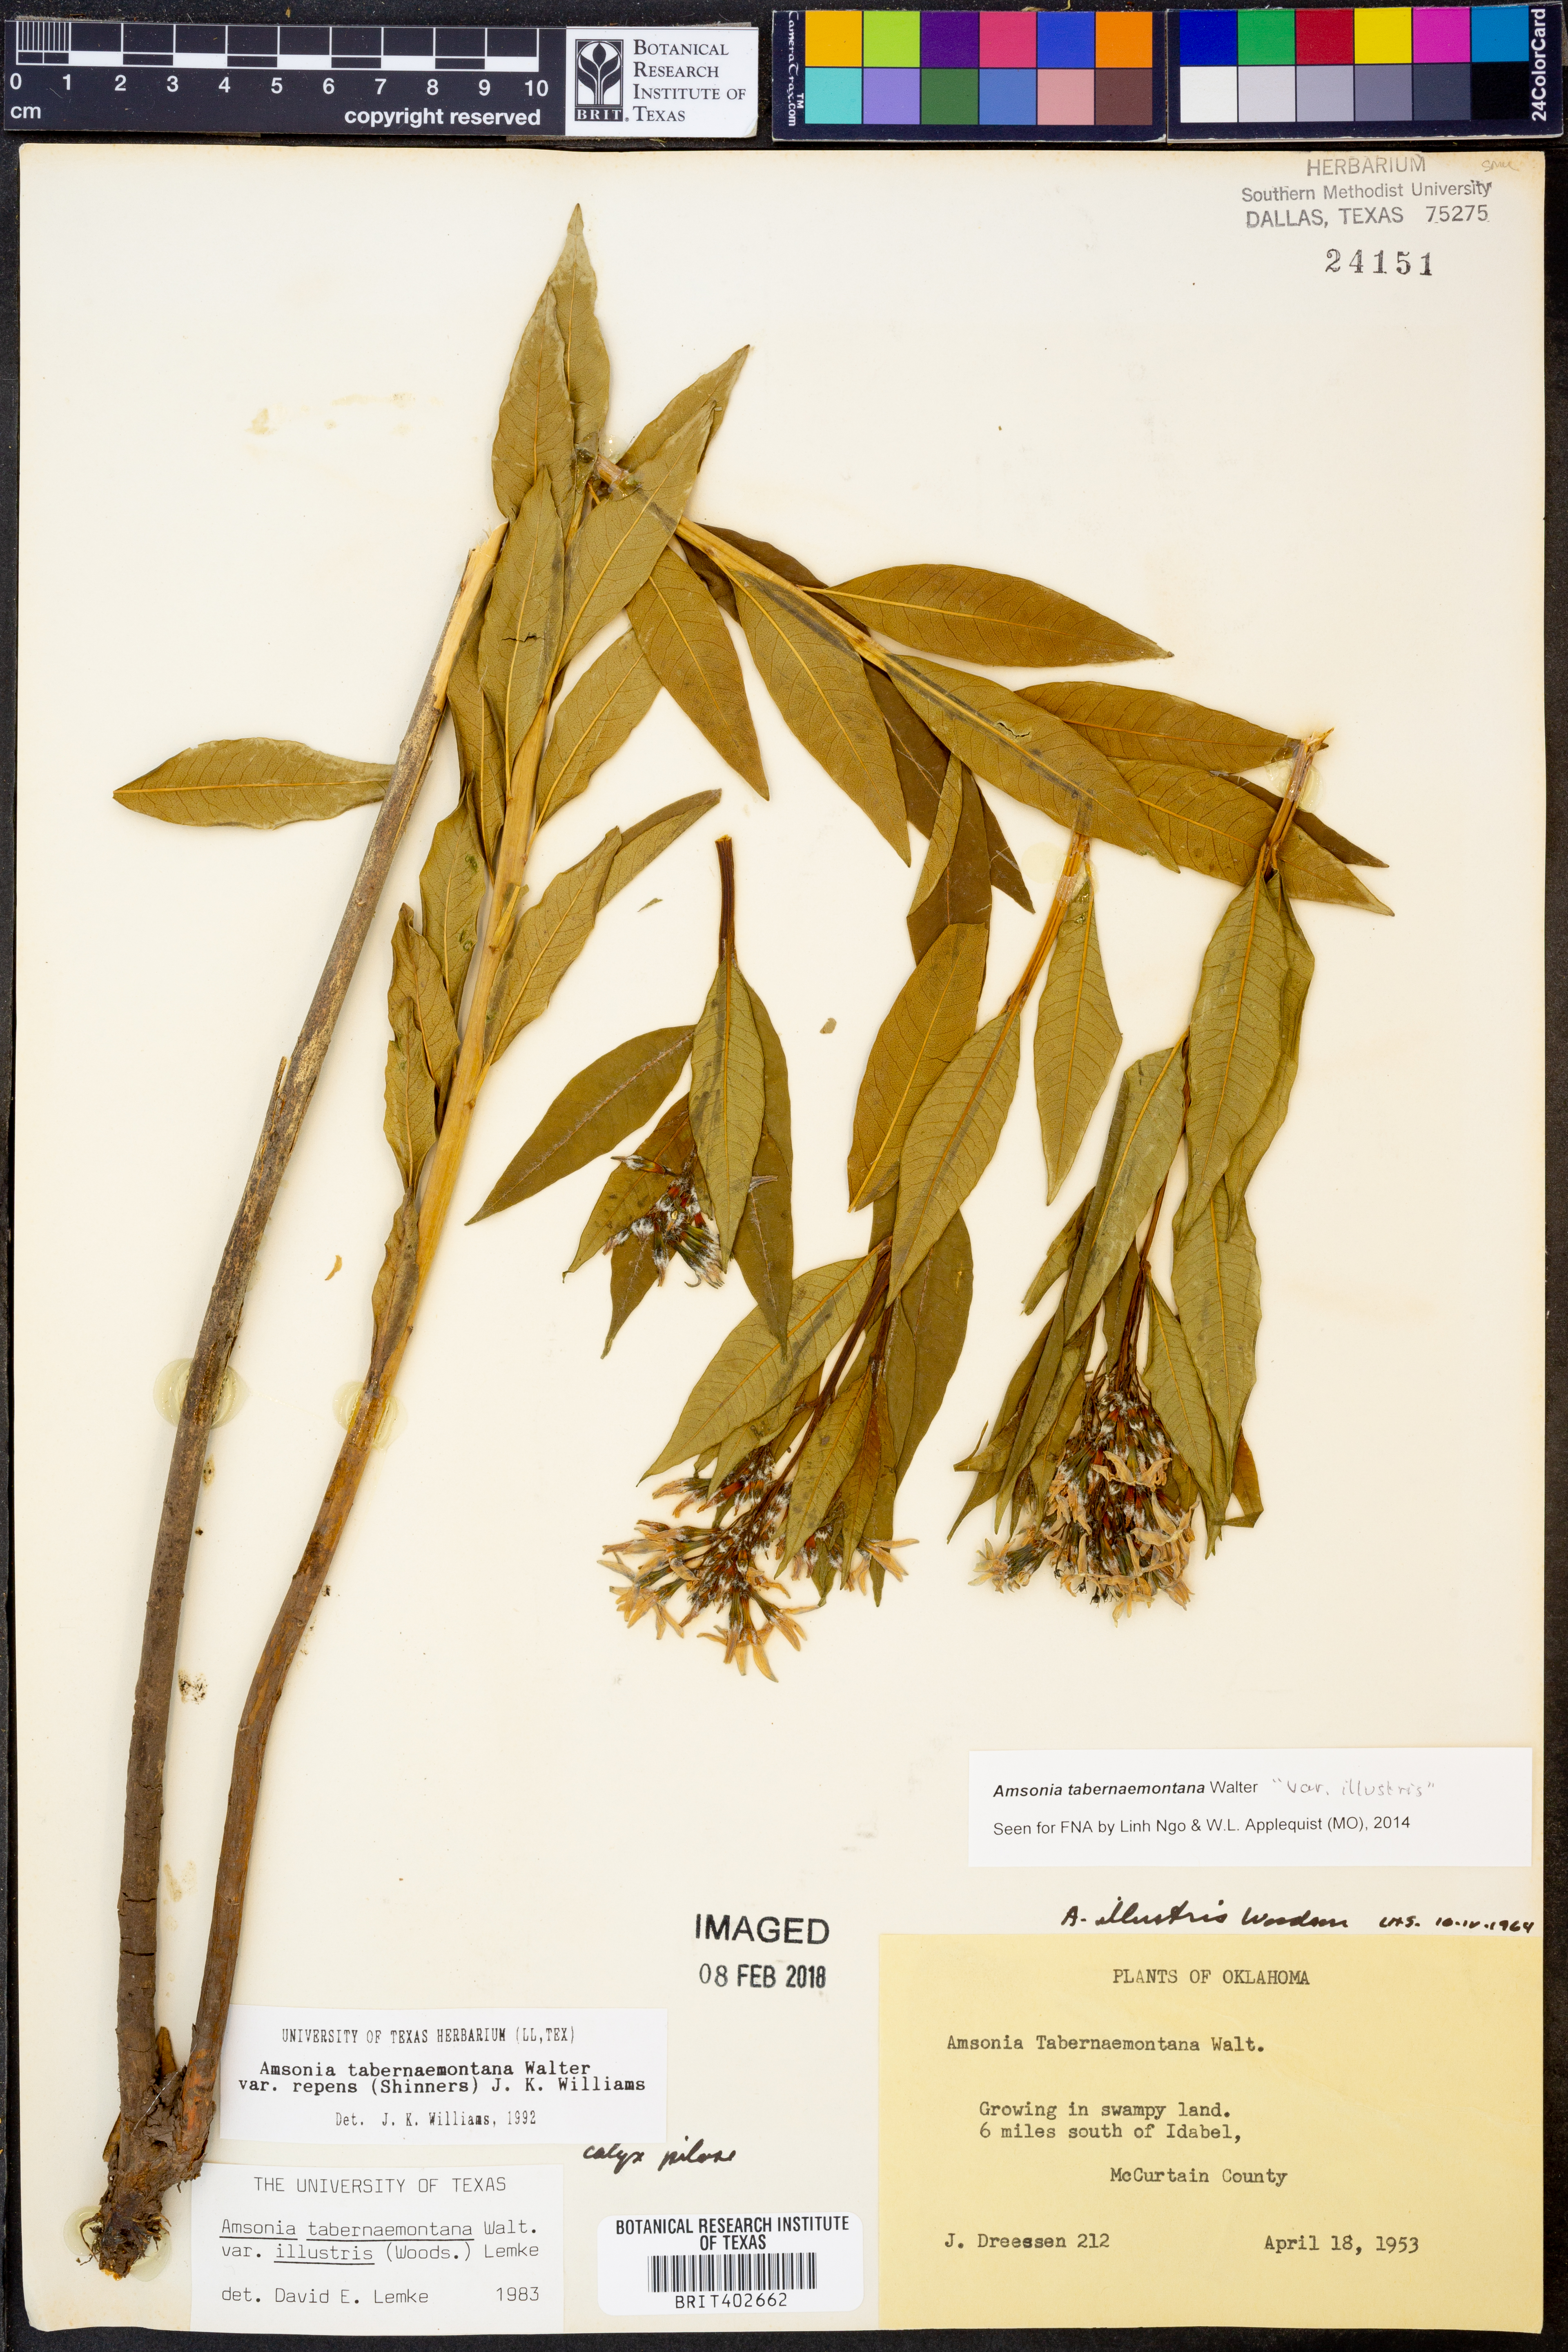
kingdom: Plantae
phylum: Tracheophyta
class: Magnoliopsida
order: Gentianales
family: Apocynaceae
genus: Amsonia
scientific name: Amsonia tabernaemontana
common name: Texas-star
